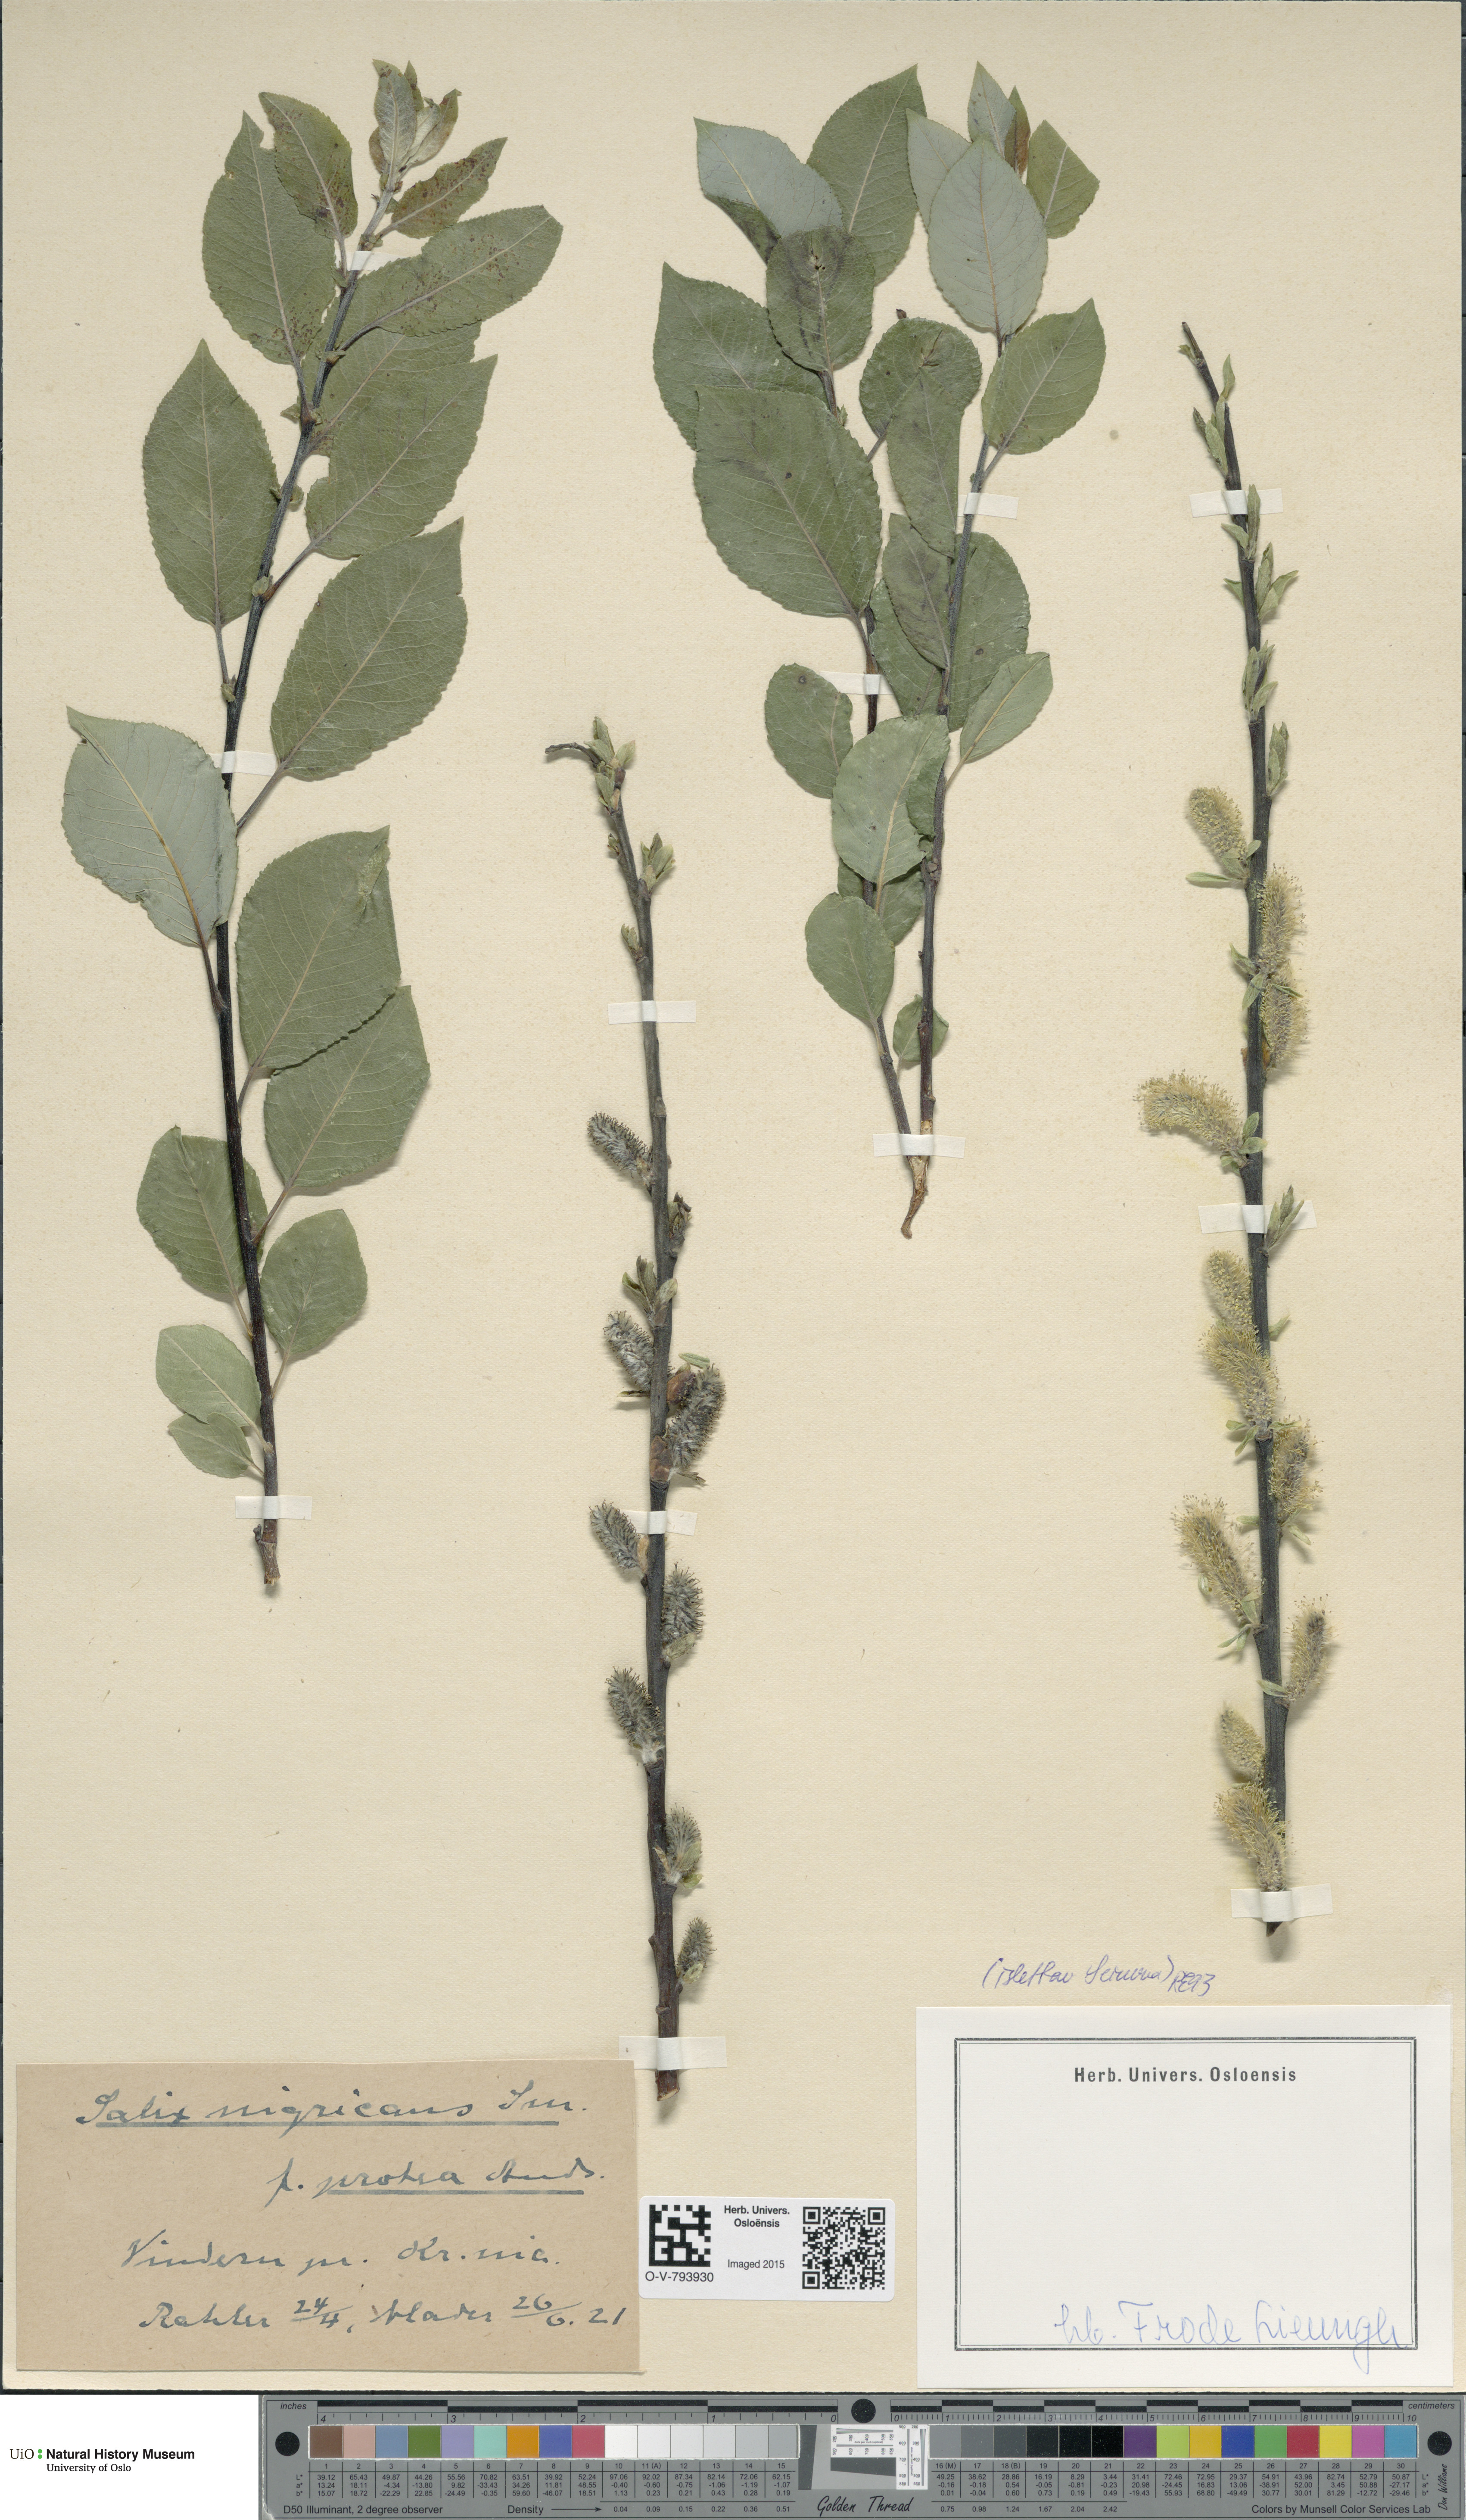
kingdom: Plantae
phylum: Tracheophyta
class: Magnoliopsida
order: Malpighiales
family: Salicaceae
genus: Salix
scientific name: Salix myrsinifolia
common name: Dark-leaved willow
